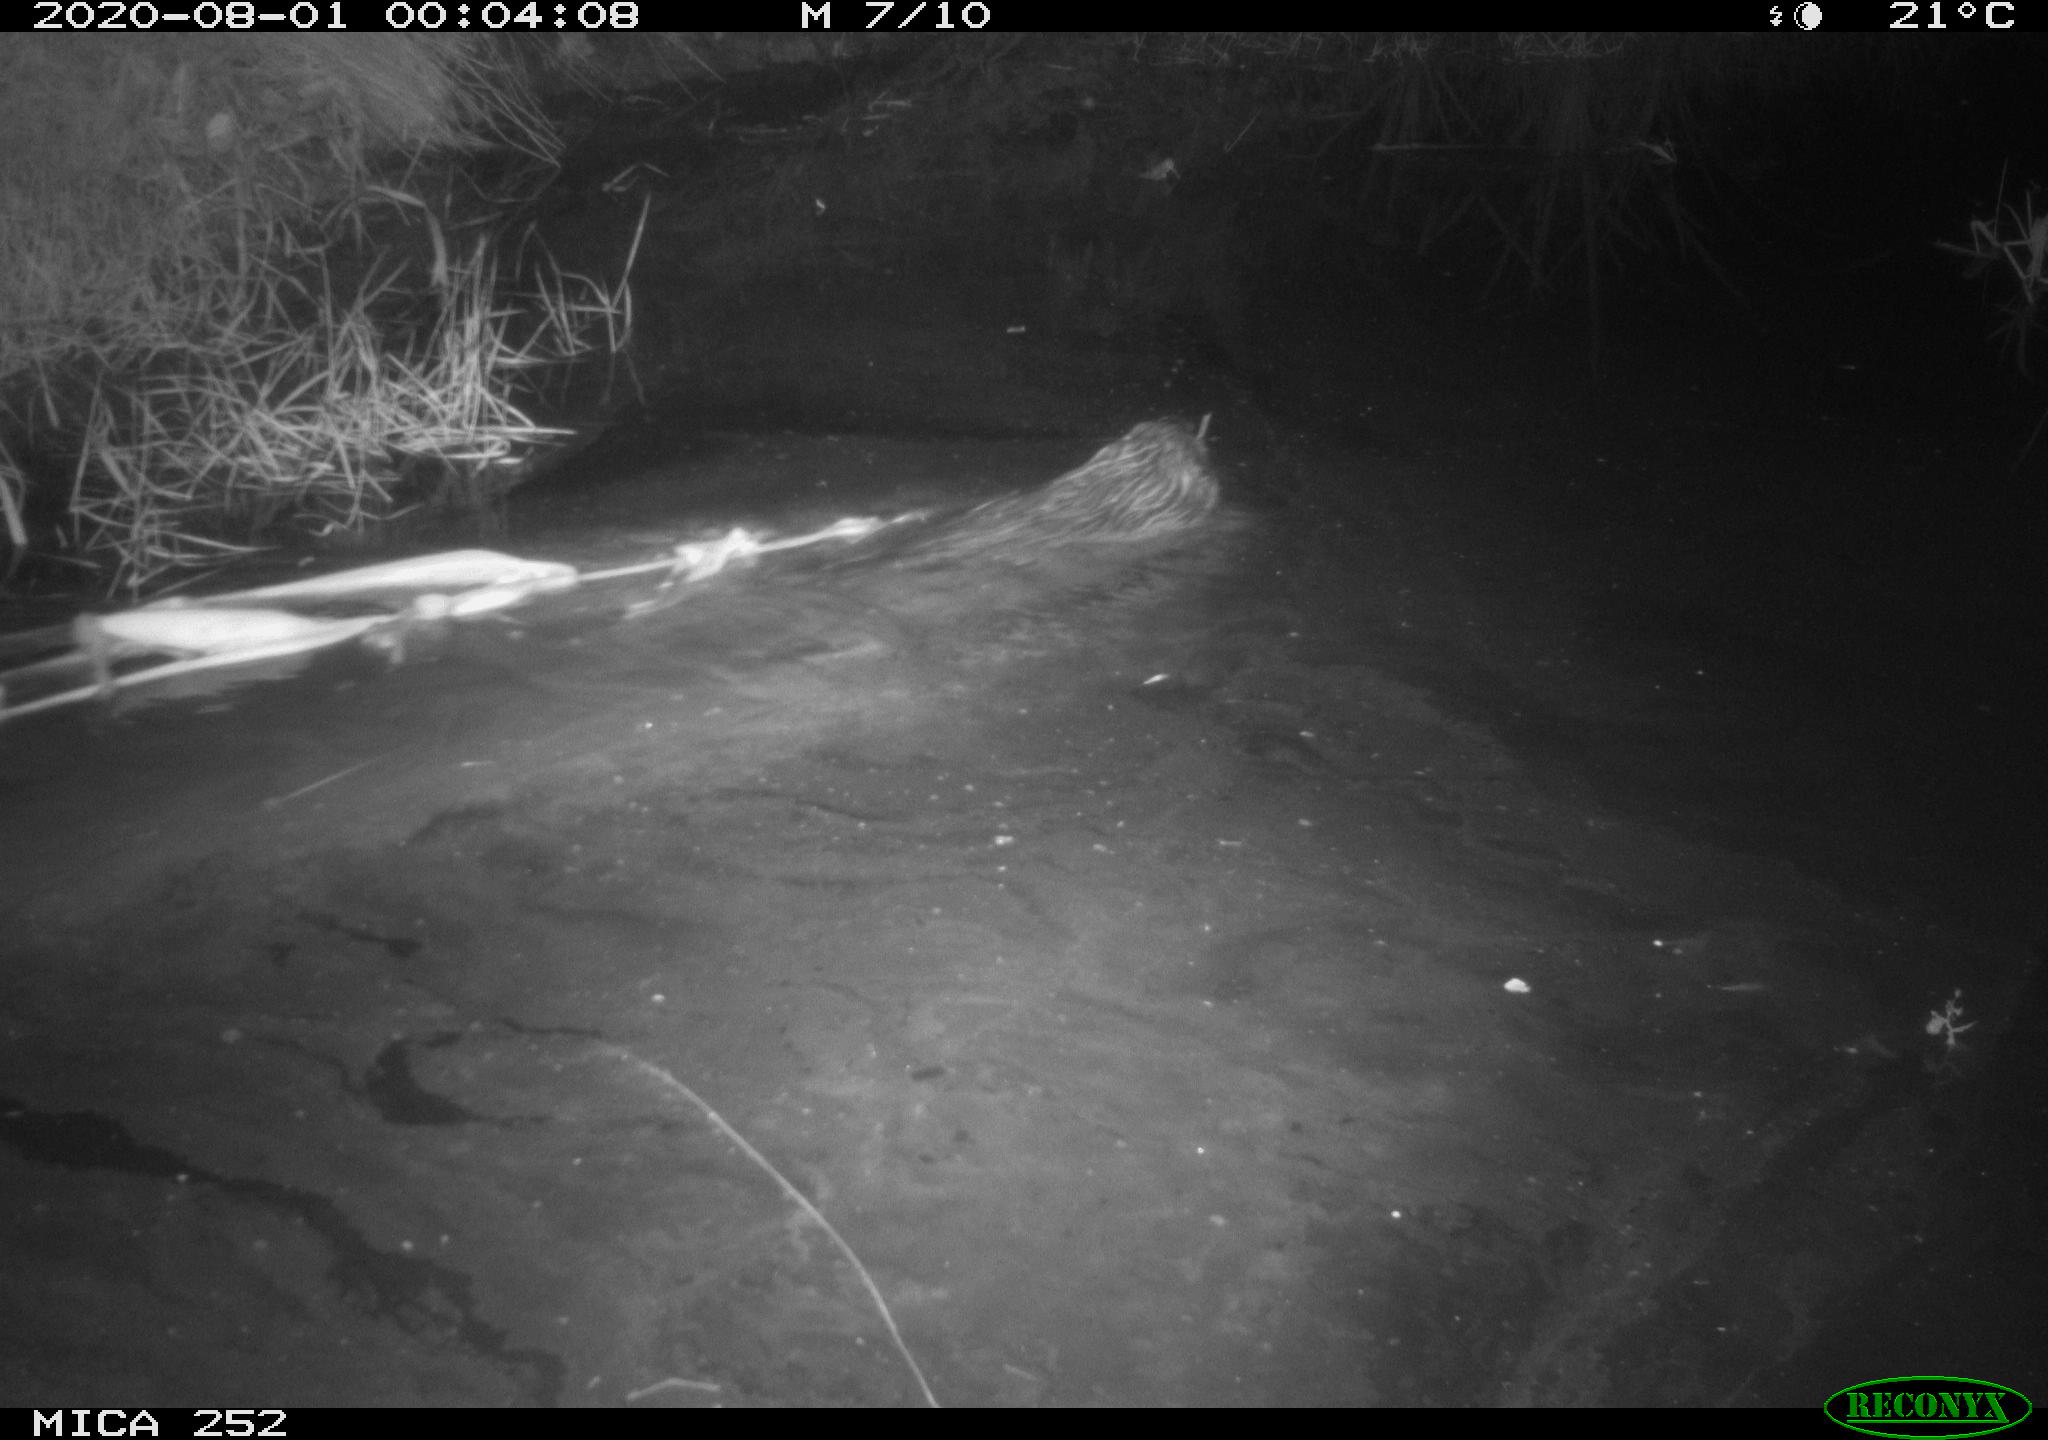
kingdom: Animalia
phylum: Chordata
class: Mammalia
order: Rodentia
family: Castoridae
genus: Castor
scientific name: Castor fiber
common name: Eurasian beaver
